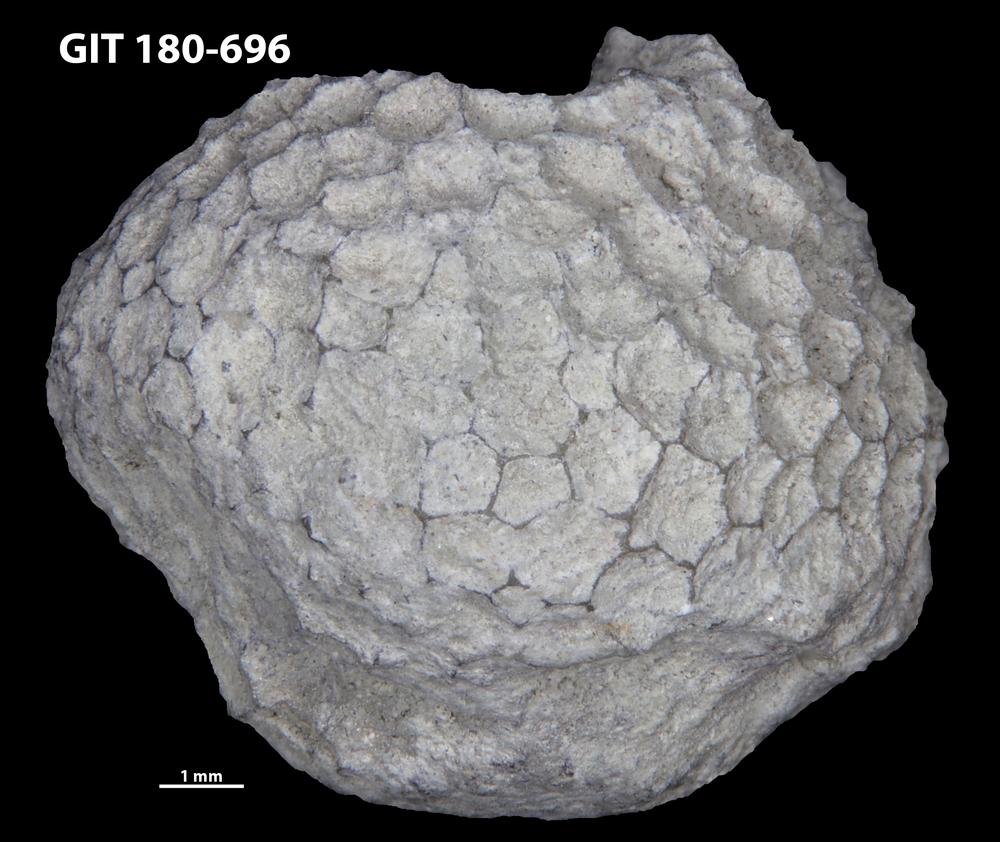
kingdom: Animalia
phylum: Cnidaria
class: Anthozoa
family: Favositidae
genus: Favosites
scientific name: Favosites
